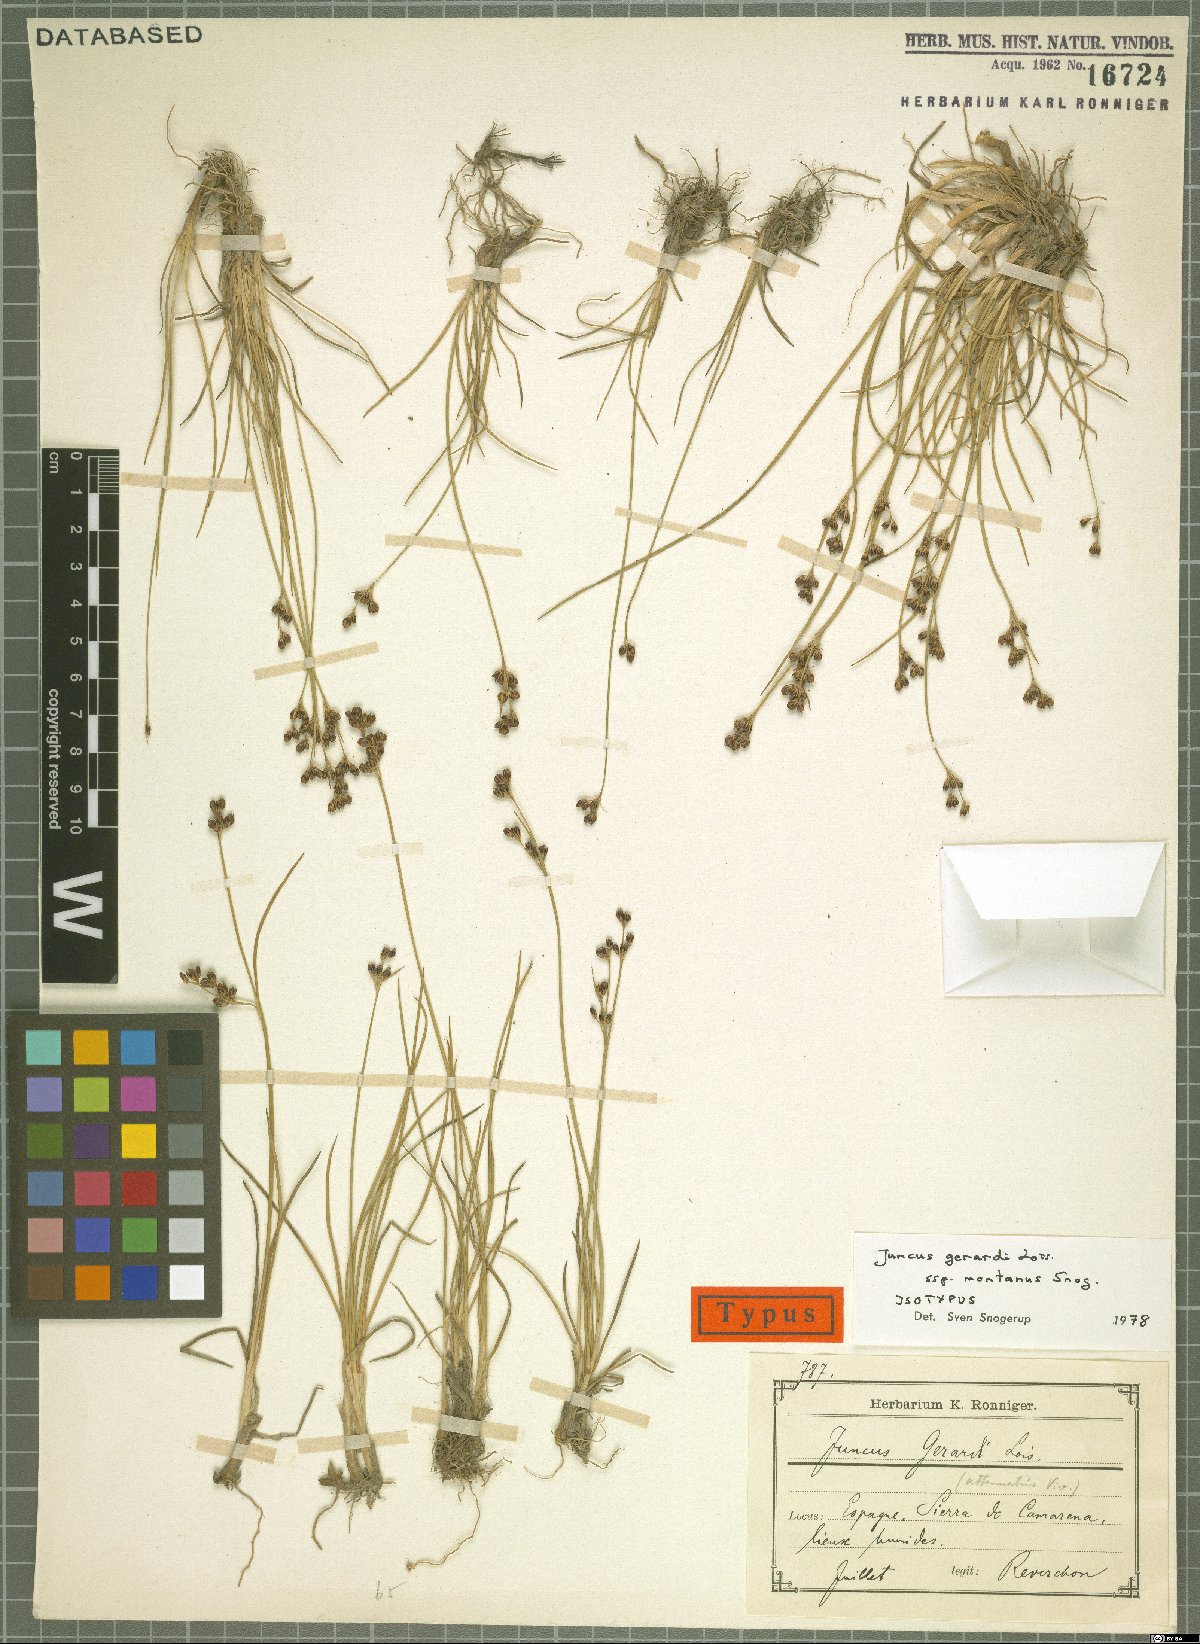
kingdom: Plantae
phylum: Tracheophyta
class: Liliopsida
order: Poales
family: Juncaceae
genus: Juncus
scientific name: Juncus gerardi
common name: Saltmarsh rush
